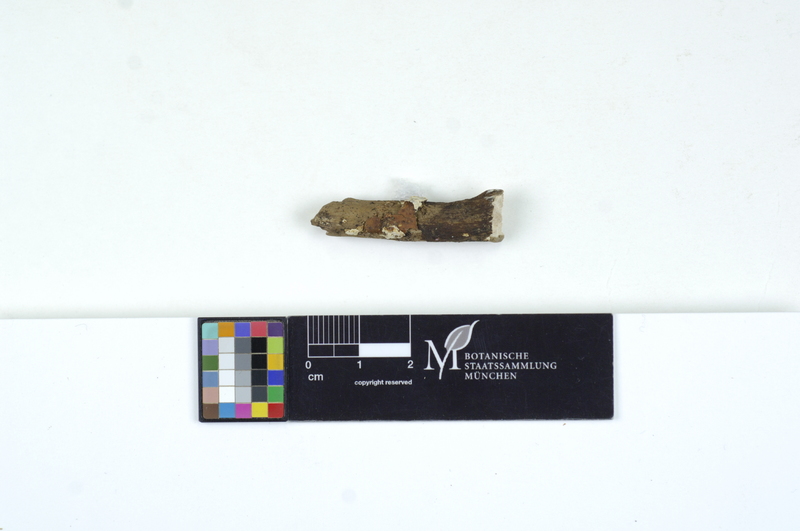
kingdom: Fungi
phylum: Basidiomycota
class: Agaricomycetes
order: Auriculariales
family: Auriculariaceae
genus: Amphistereum
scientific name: Amphistereum leveilleanum
